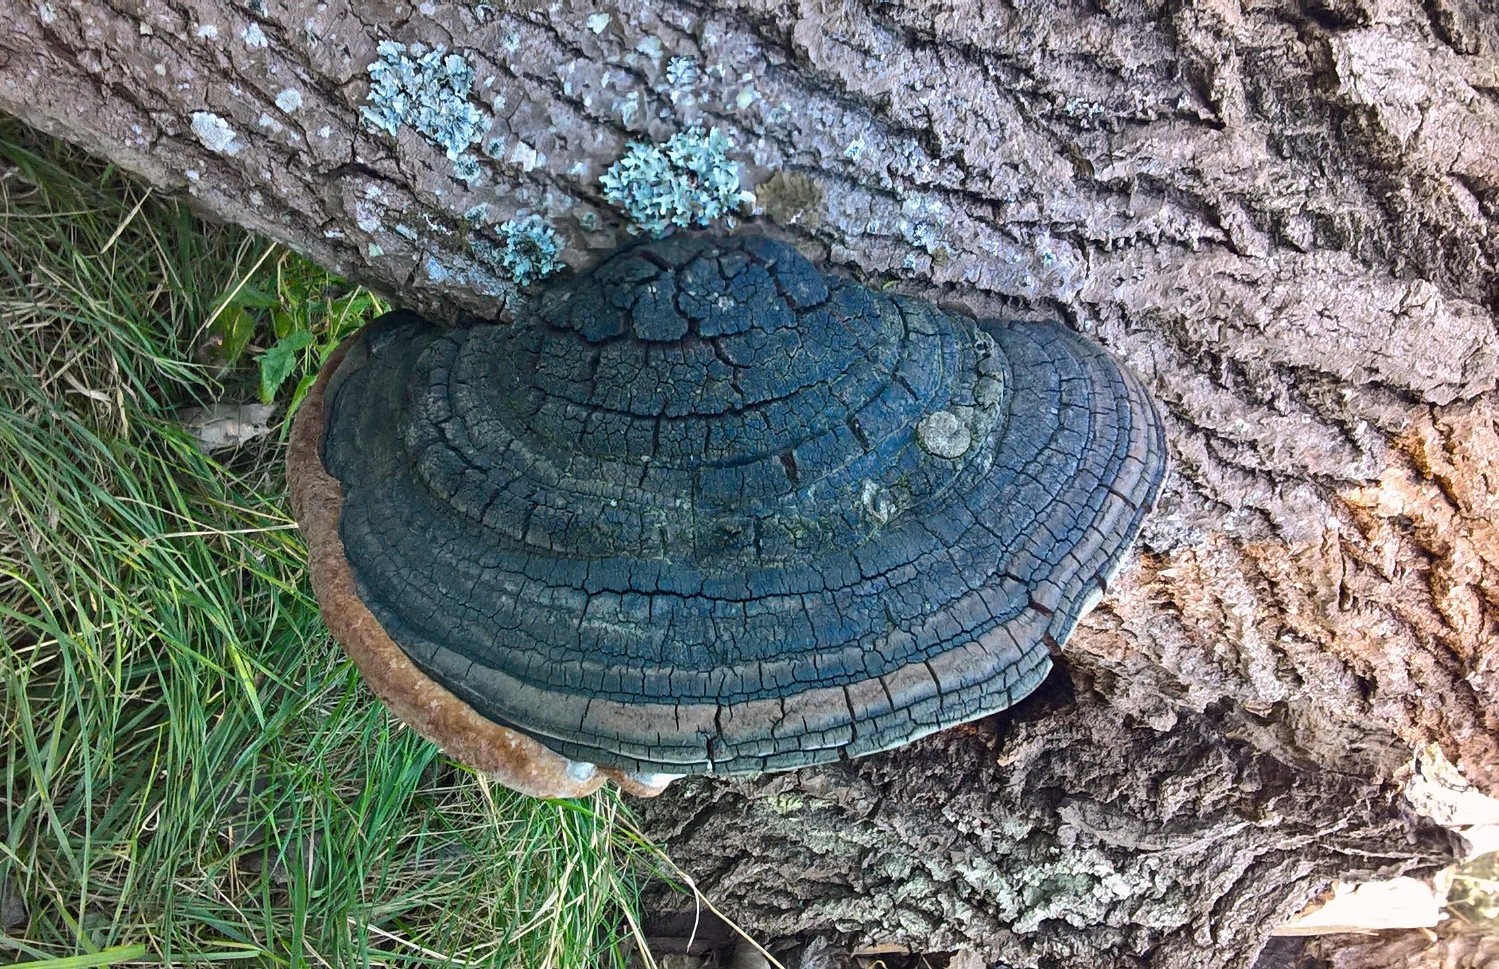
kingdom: Fungi
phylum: Basidiomycota
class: Agaricomycetes
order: Hymenochaetales
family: Hymenochaetaceae
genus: Phellinus
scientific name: Phellinus populicola
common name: poppel-ildporesvamp
